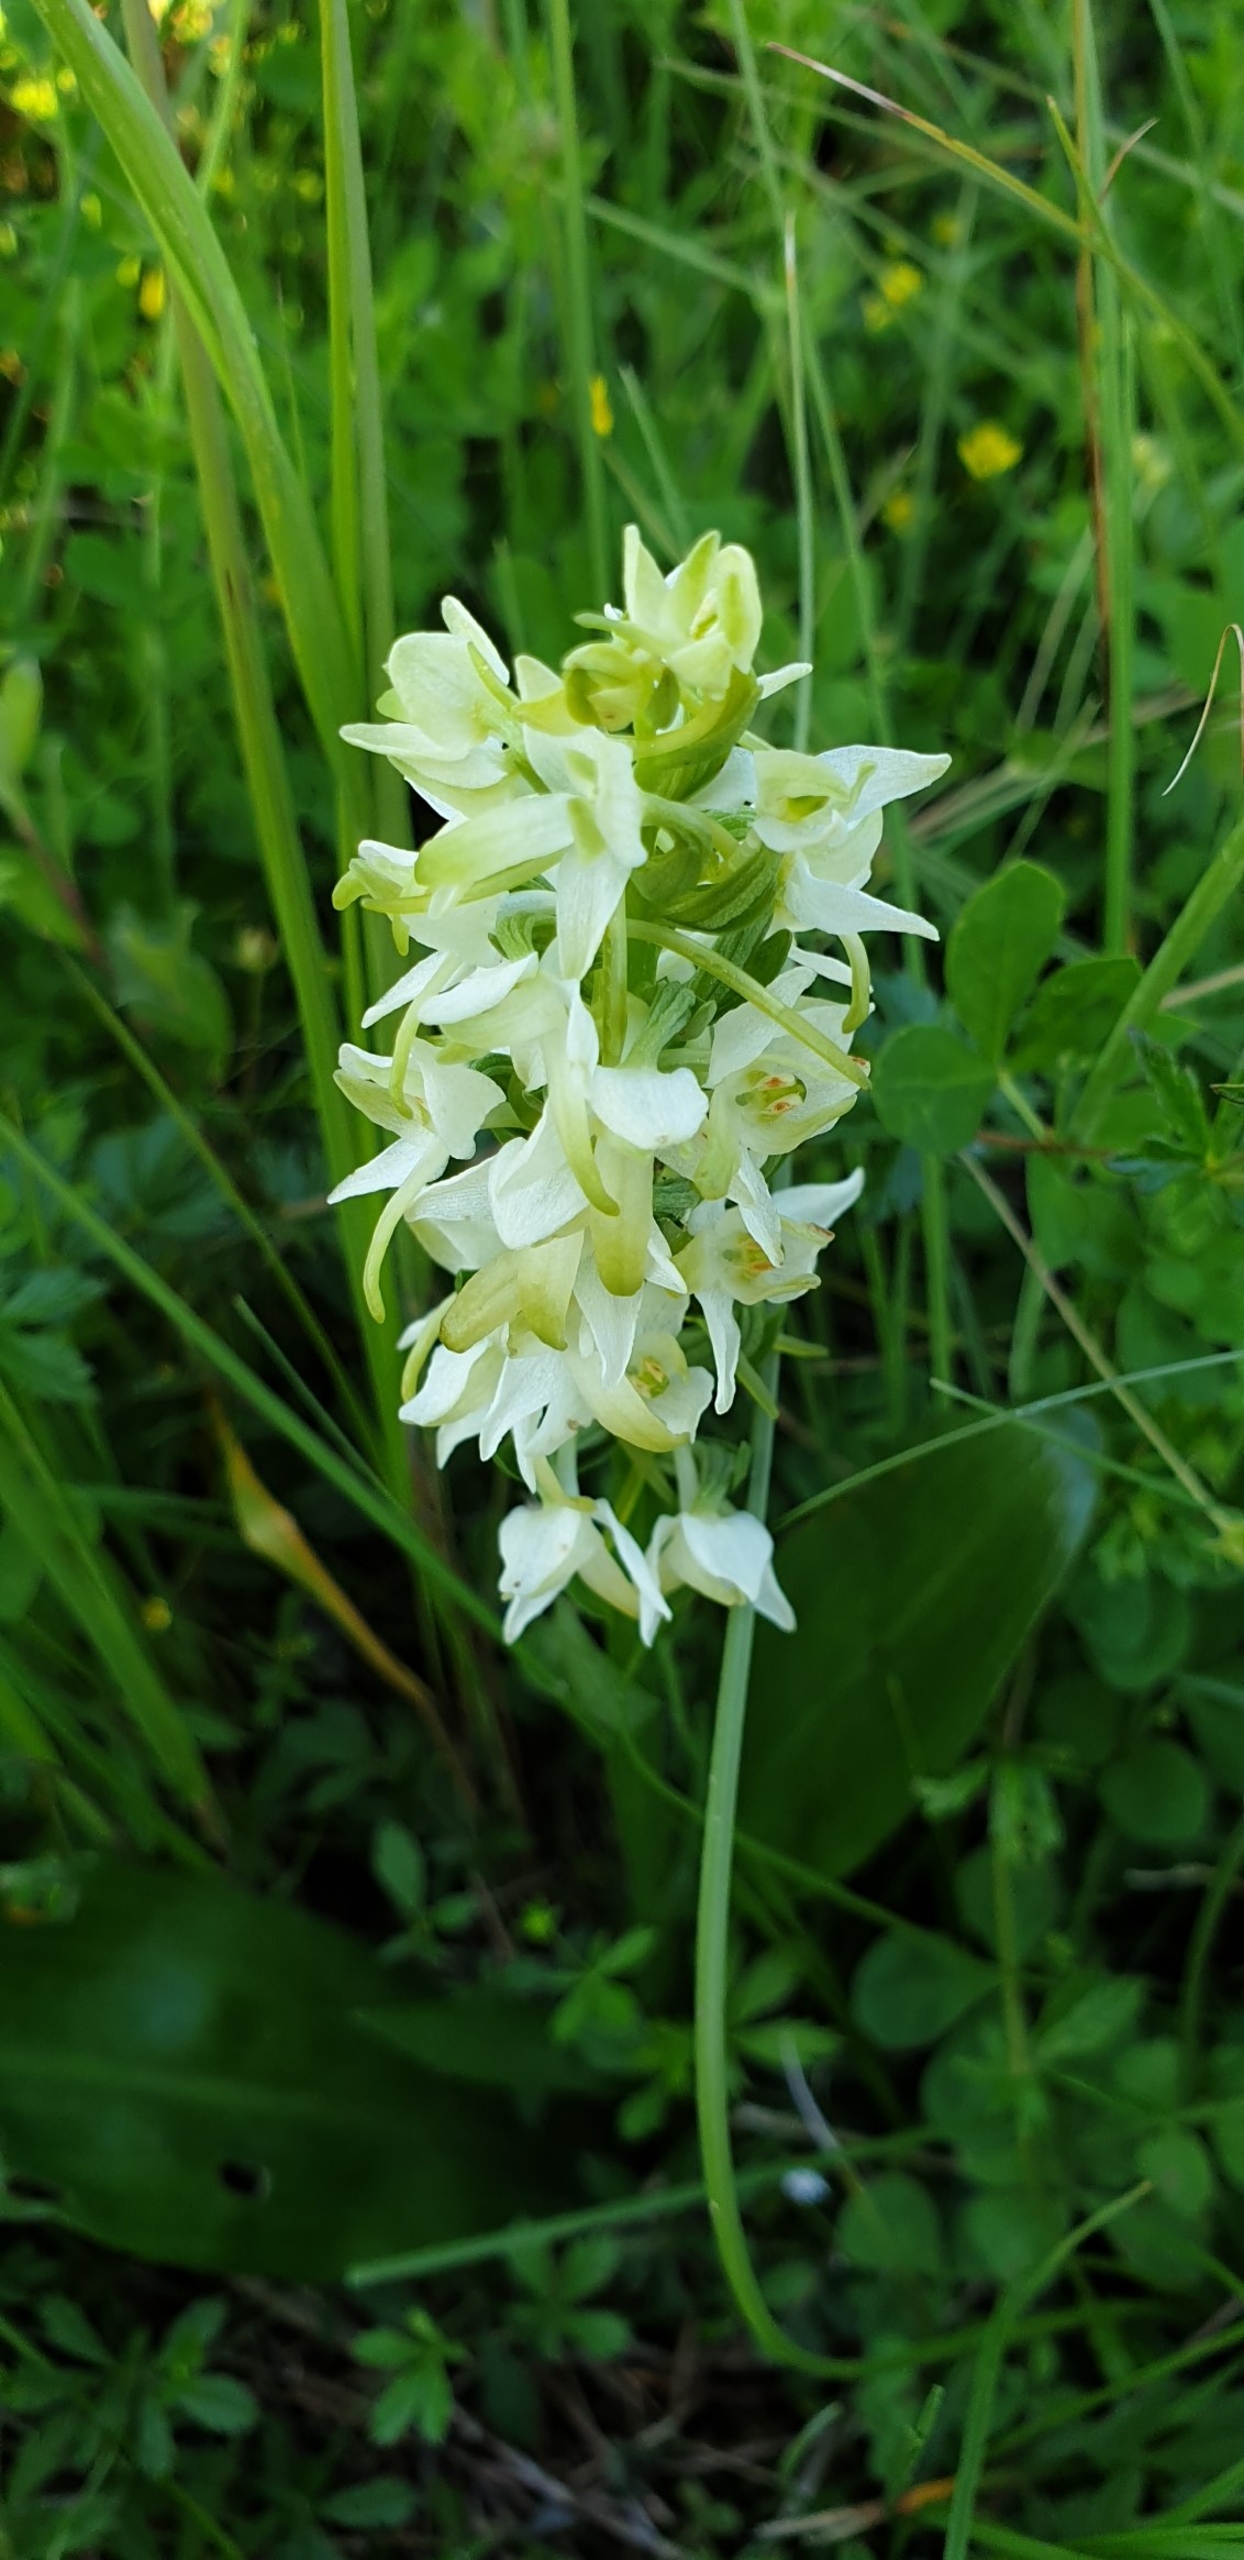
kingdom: Plantae
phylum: Tracheophyta
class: Liliopsida
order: Asparagales
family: Orchidaceae
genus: Platanthera
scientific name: Platanthera bifolia
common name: Bakke-gøgelilje
